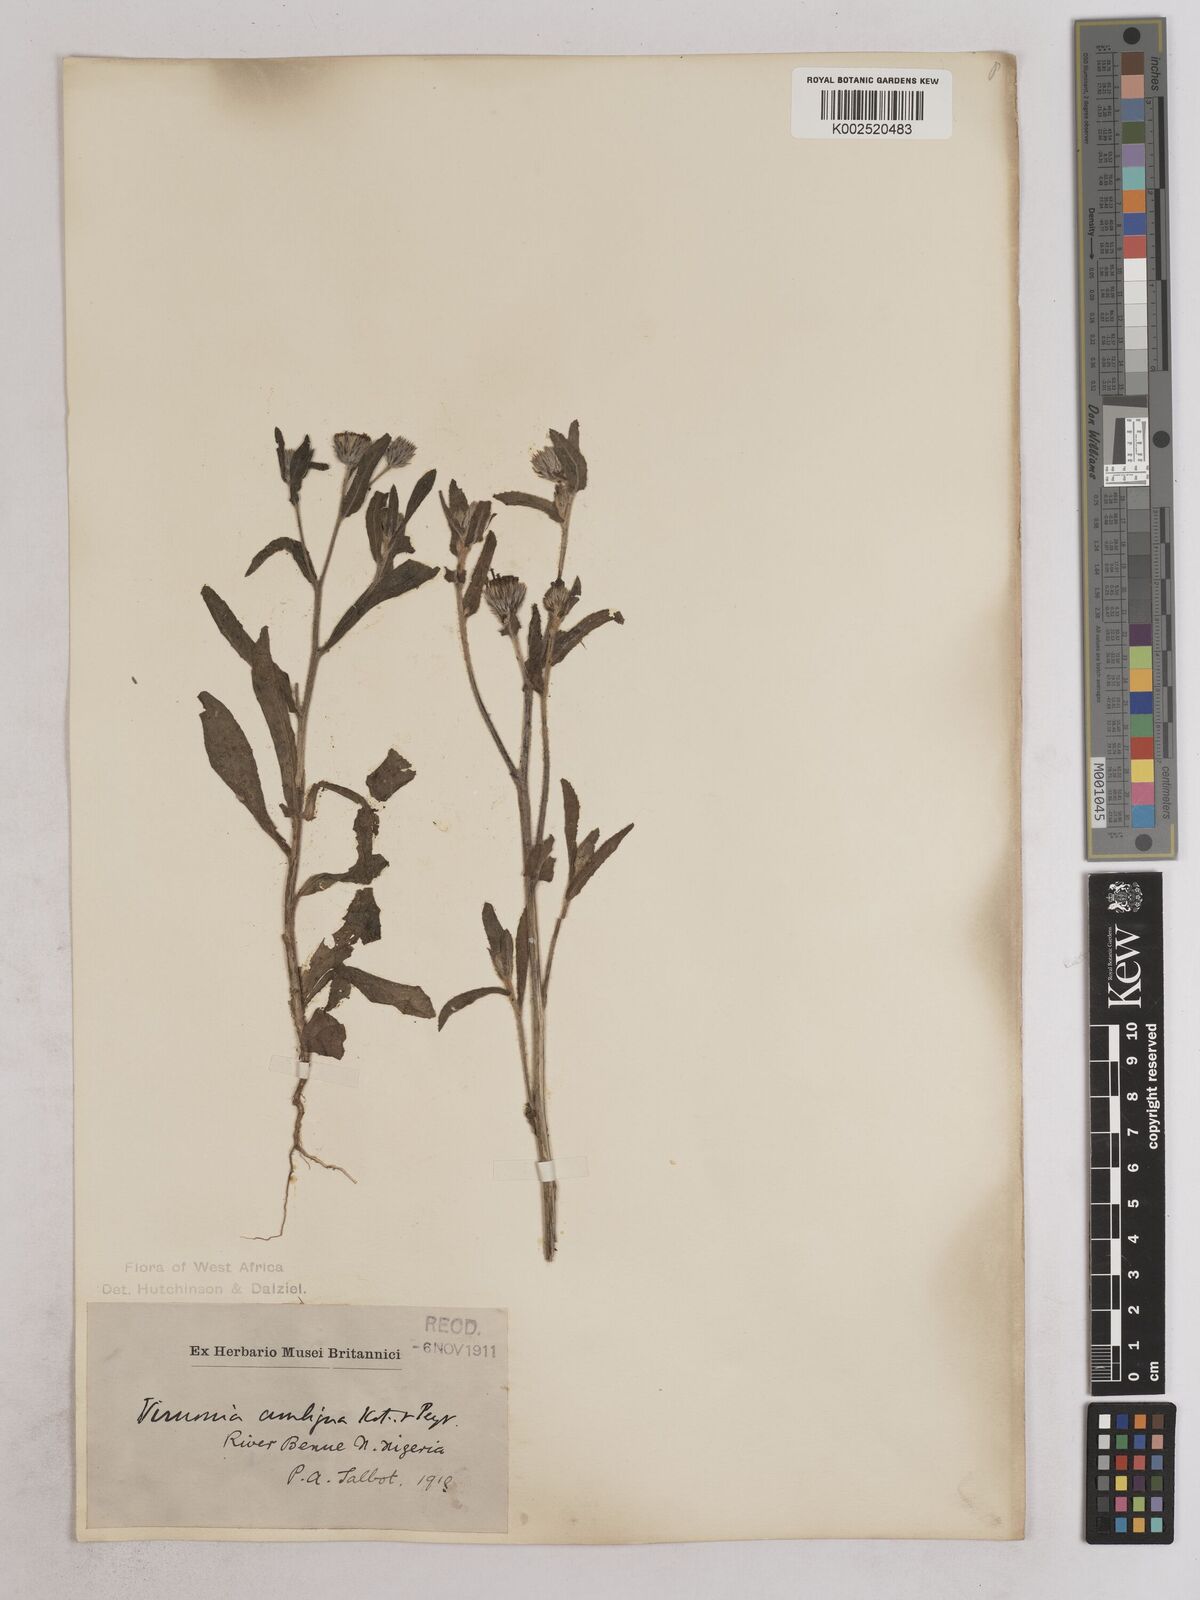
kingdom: Plantae
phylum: Tracheophyta
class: Magnoliopsida
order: Asterales
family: Asteraceae
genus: Vernoniastrum
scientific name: Vernoniastrum ambiguum
